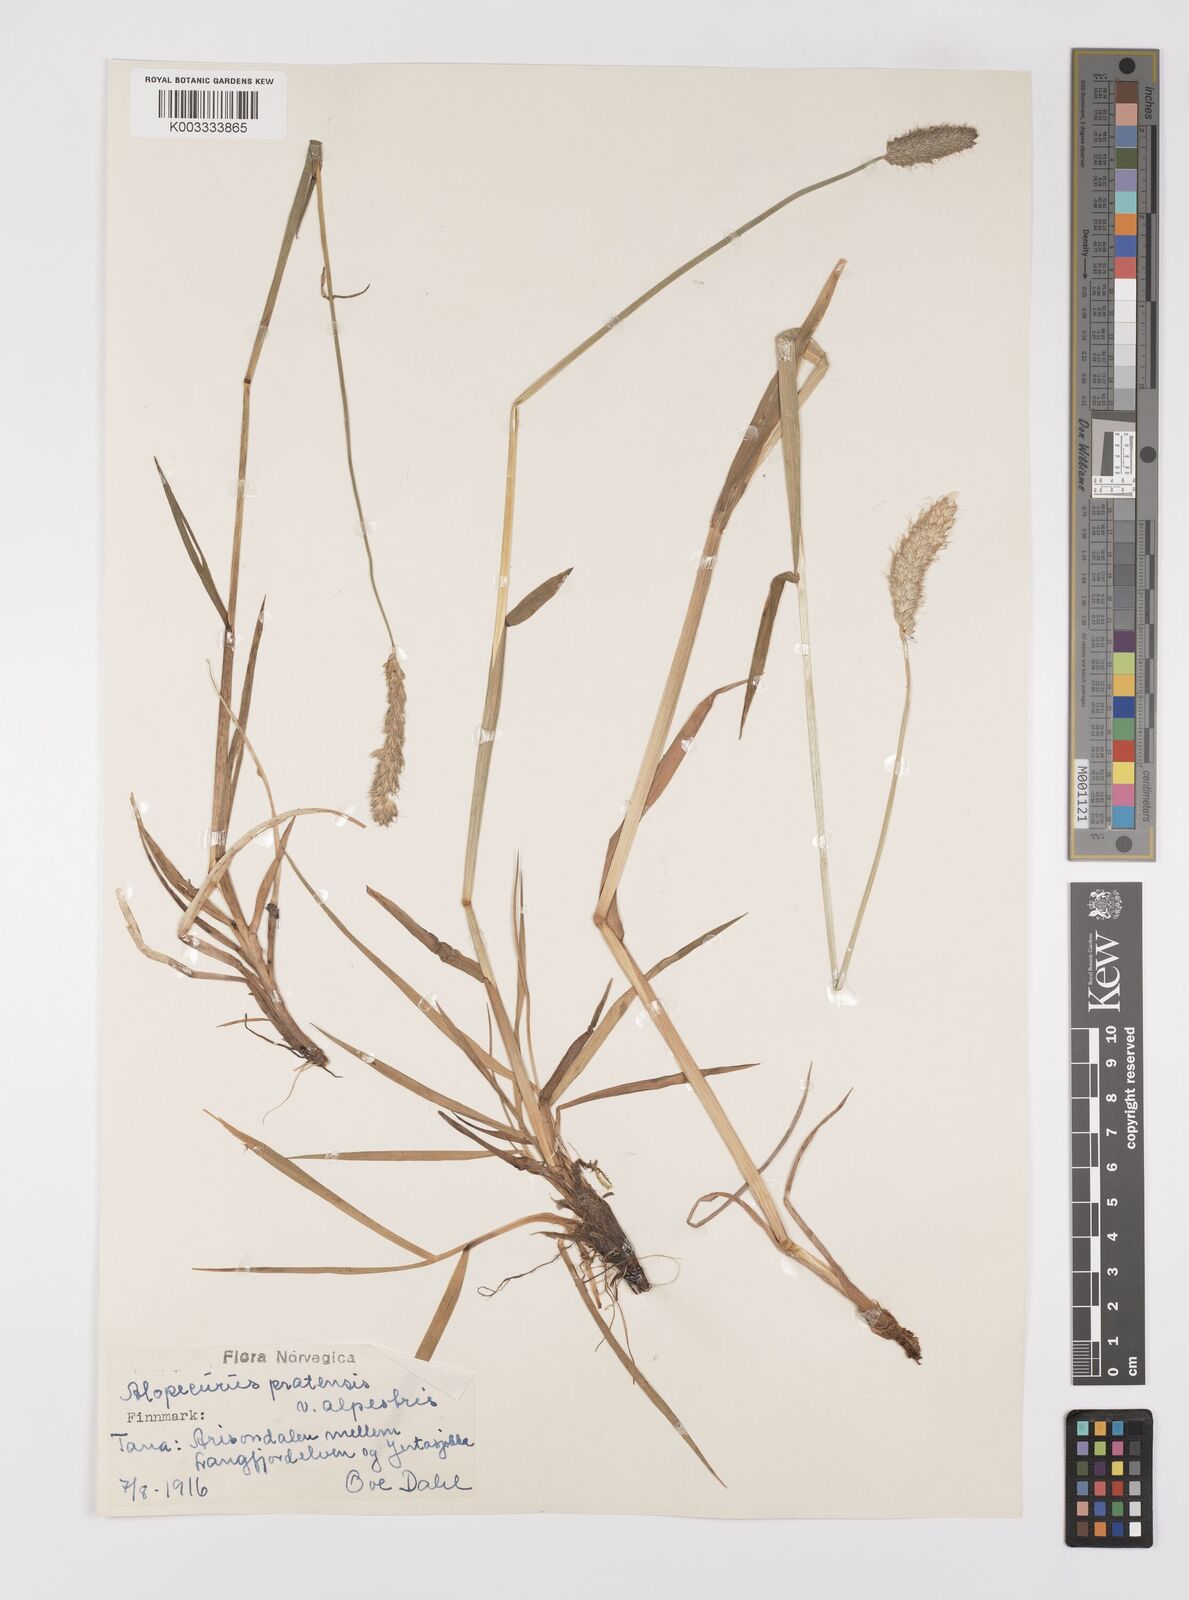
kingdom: Plantae
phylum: Tracheophyta
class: Liliopsida
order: Poales
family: Poaceae
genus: Alopecurus
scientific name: Alopecurus pratensis
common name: Meadow foxtail
